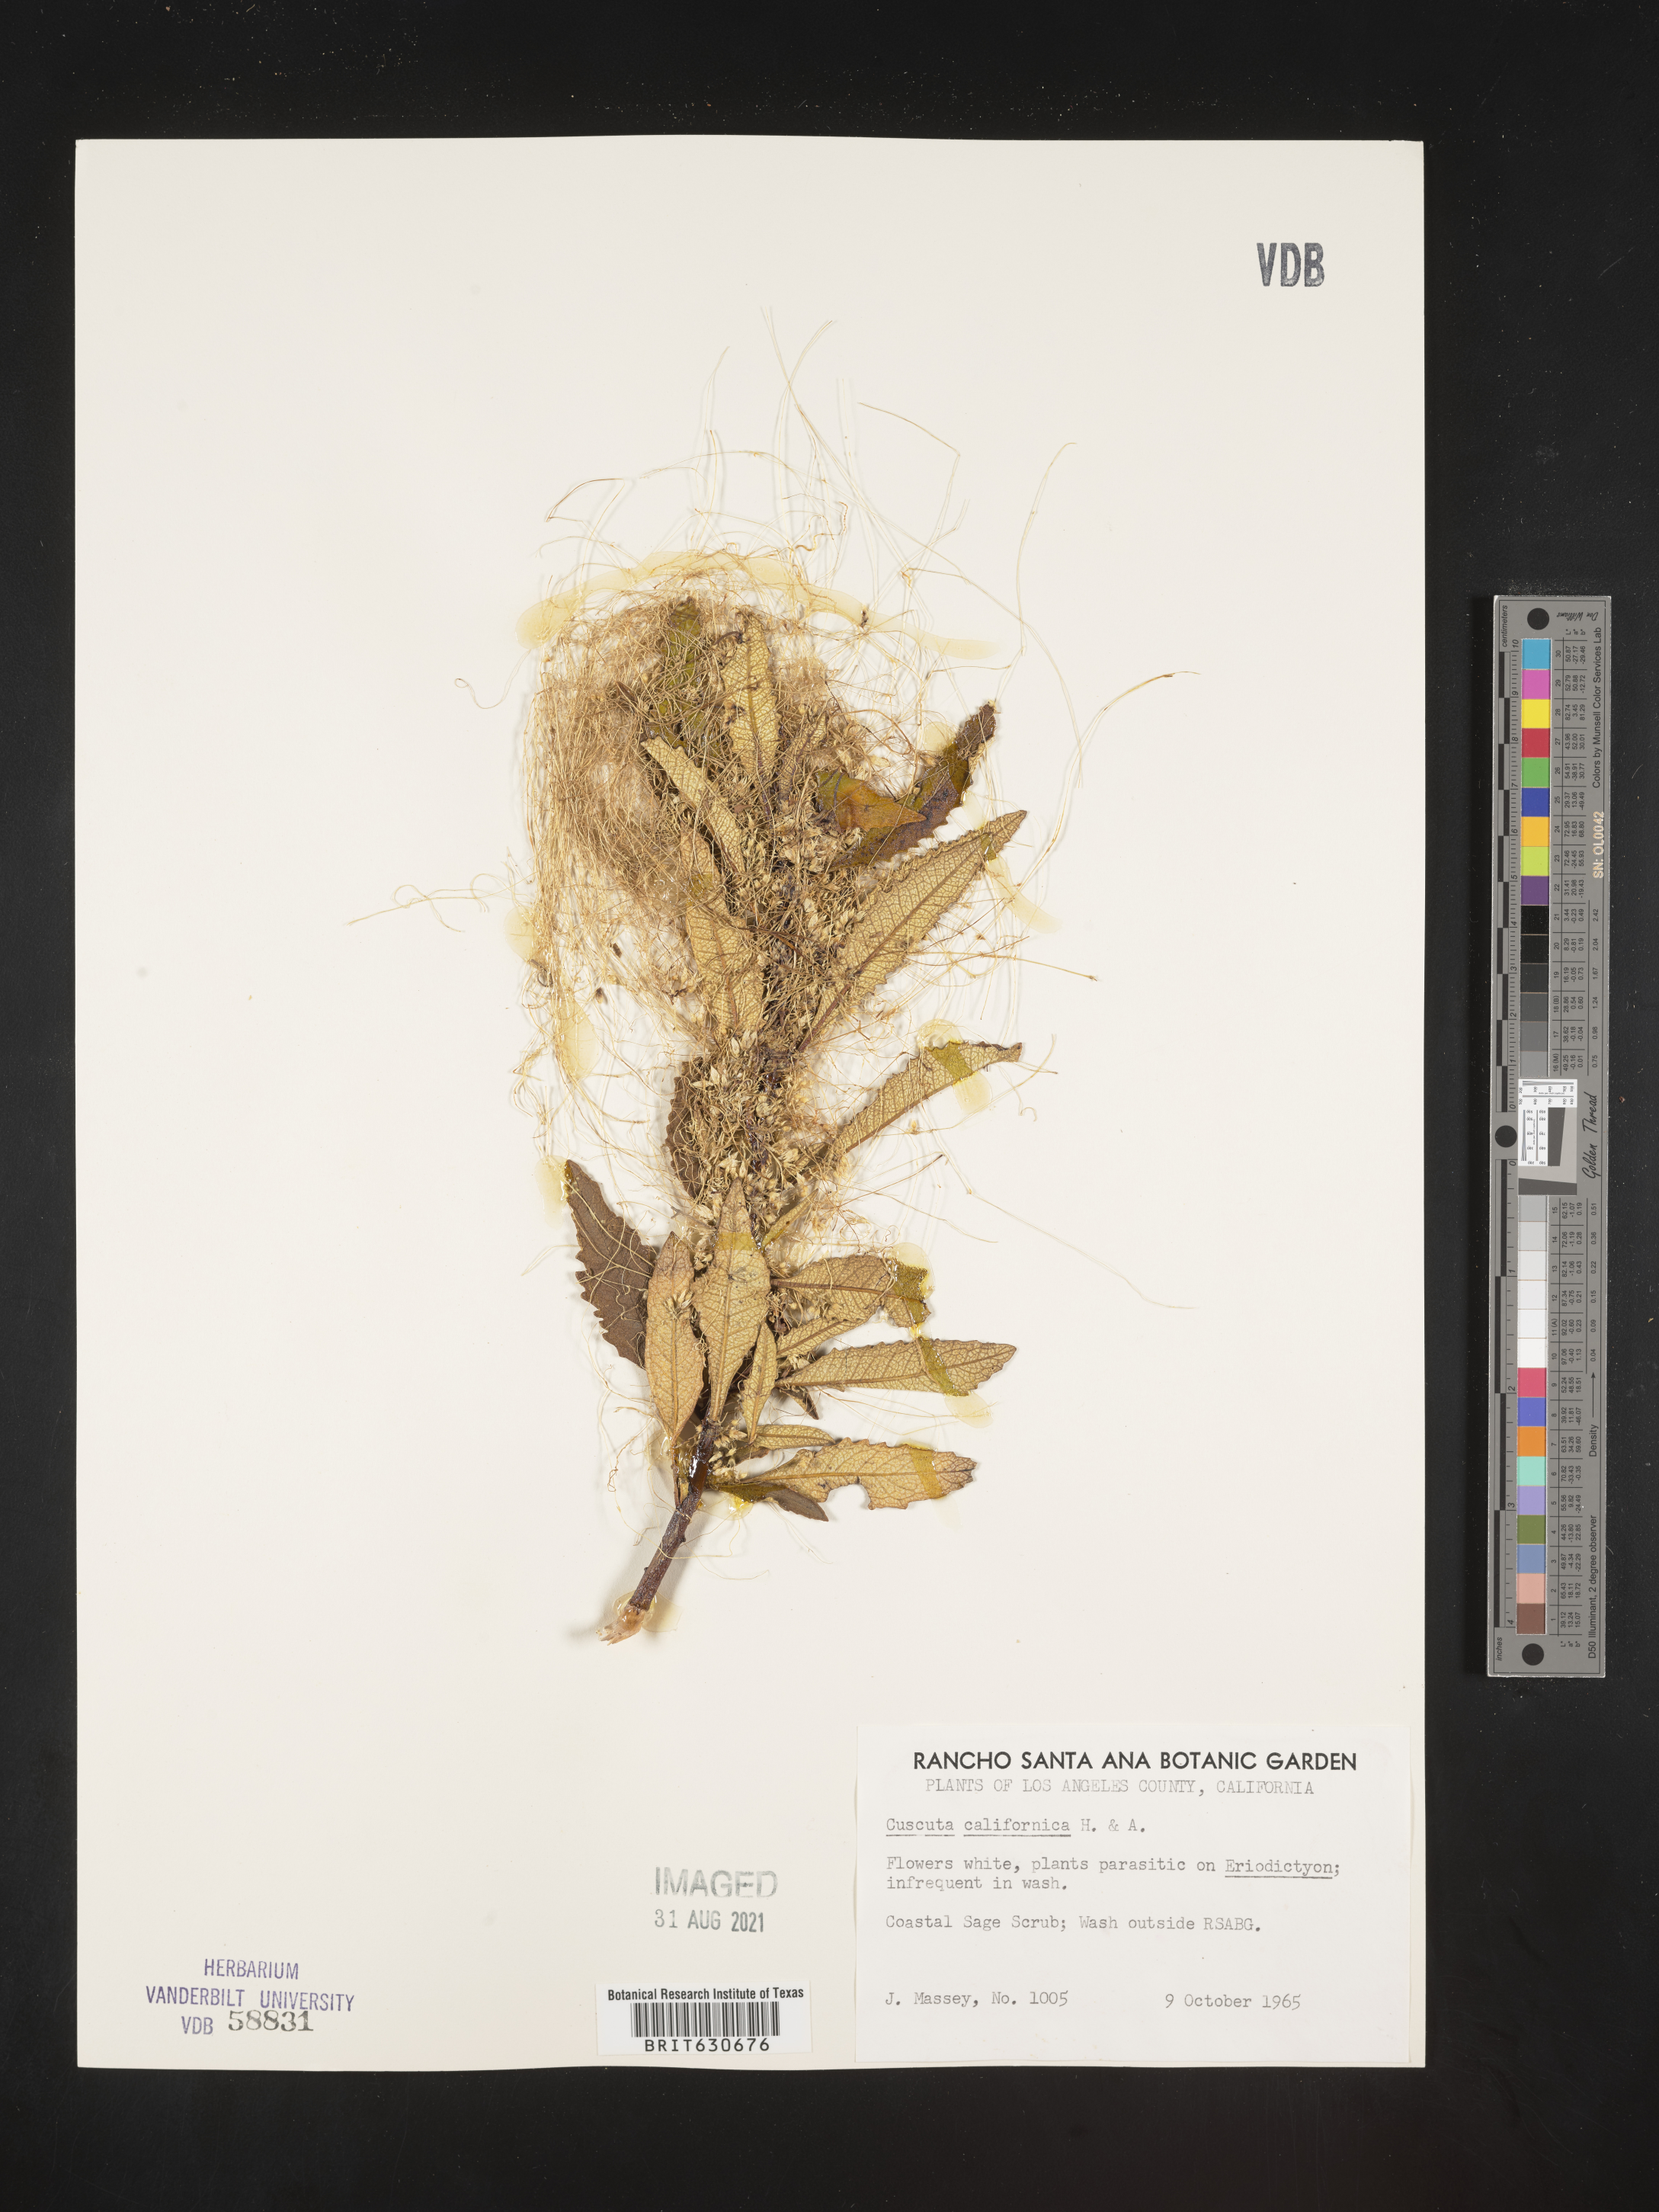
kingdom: Plantae
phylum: Tracheophyta
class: Magnoliopsida
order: Solanales
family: Convolvulaceae
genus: Cuscuta
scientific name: Cuscuta californica
